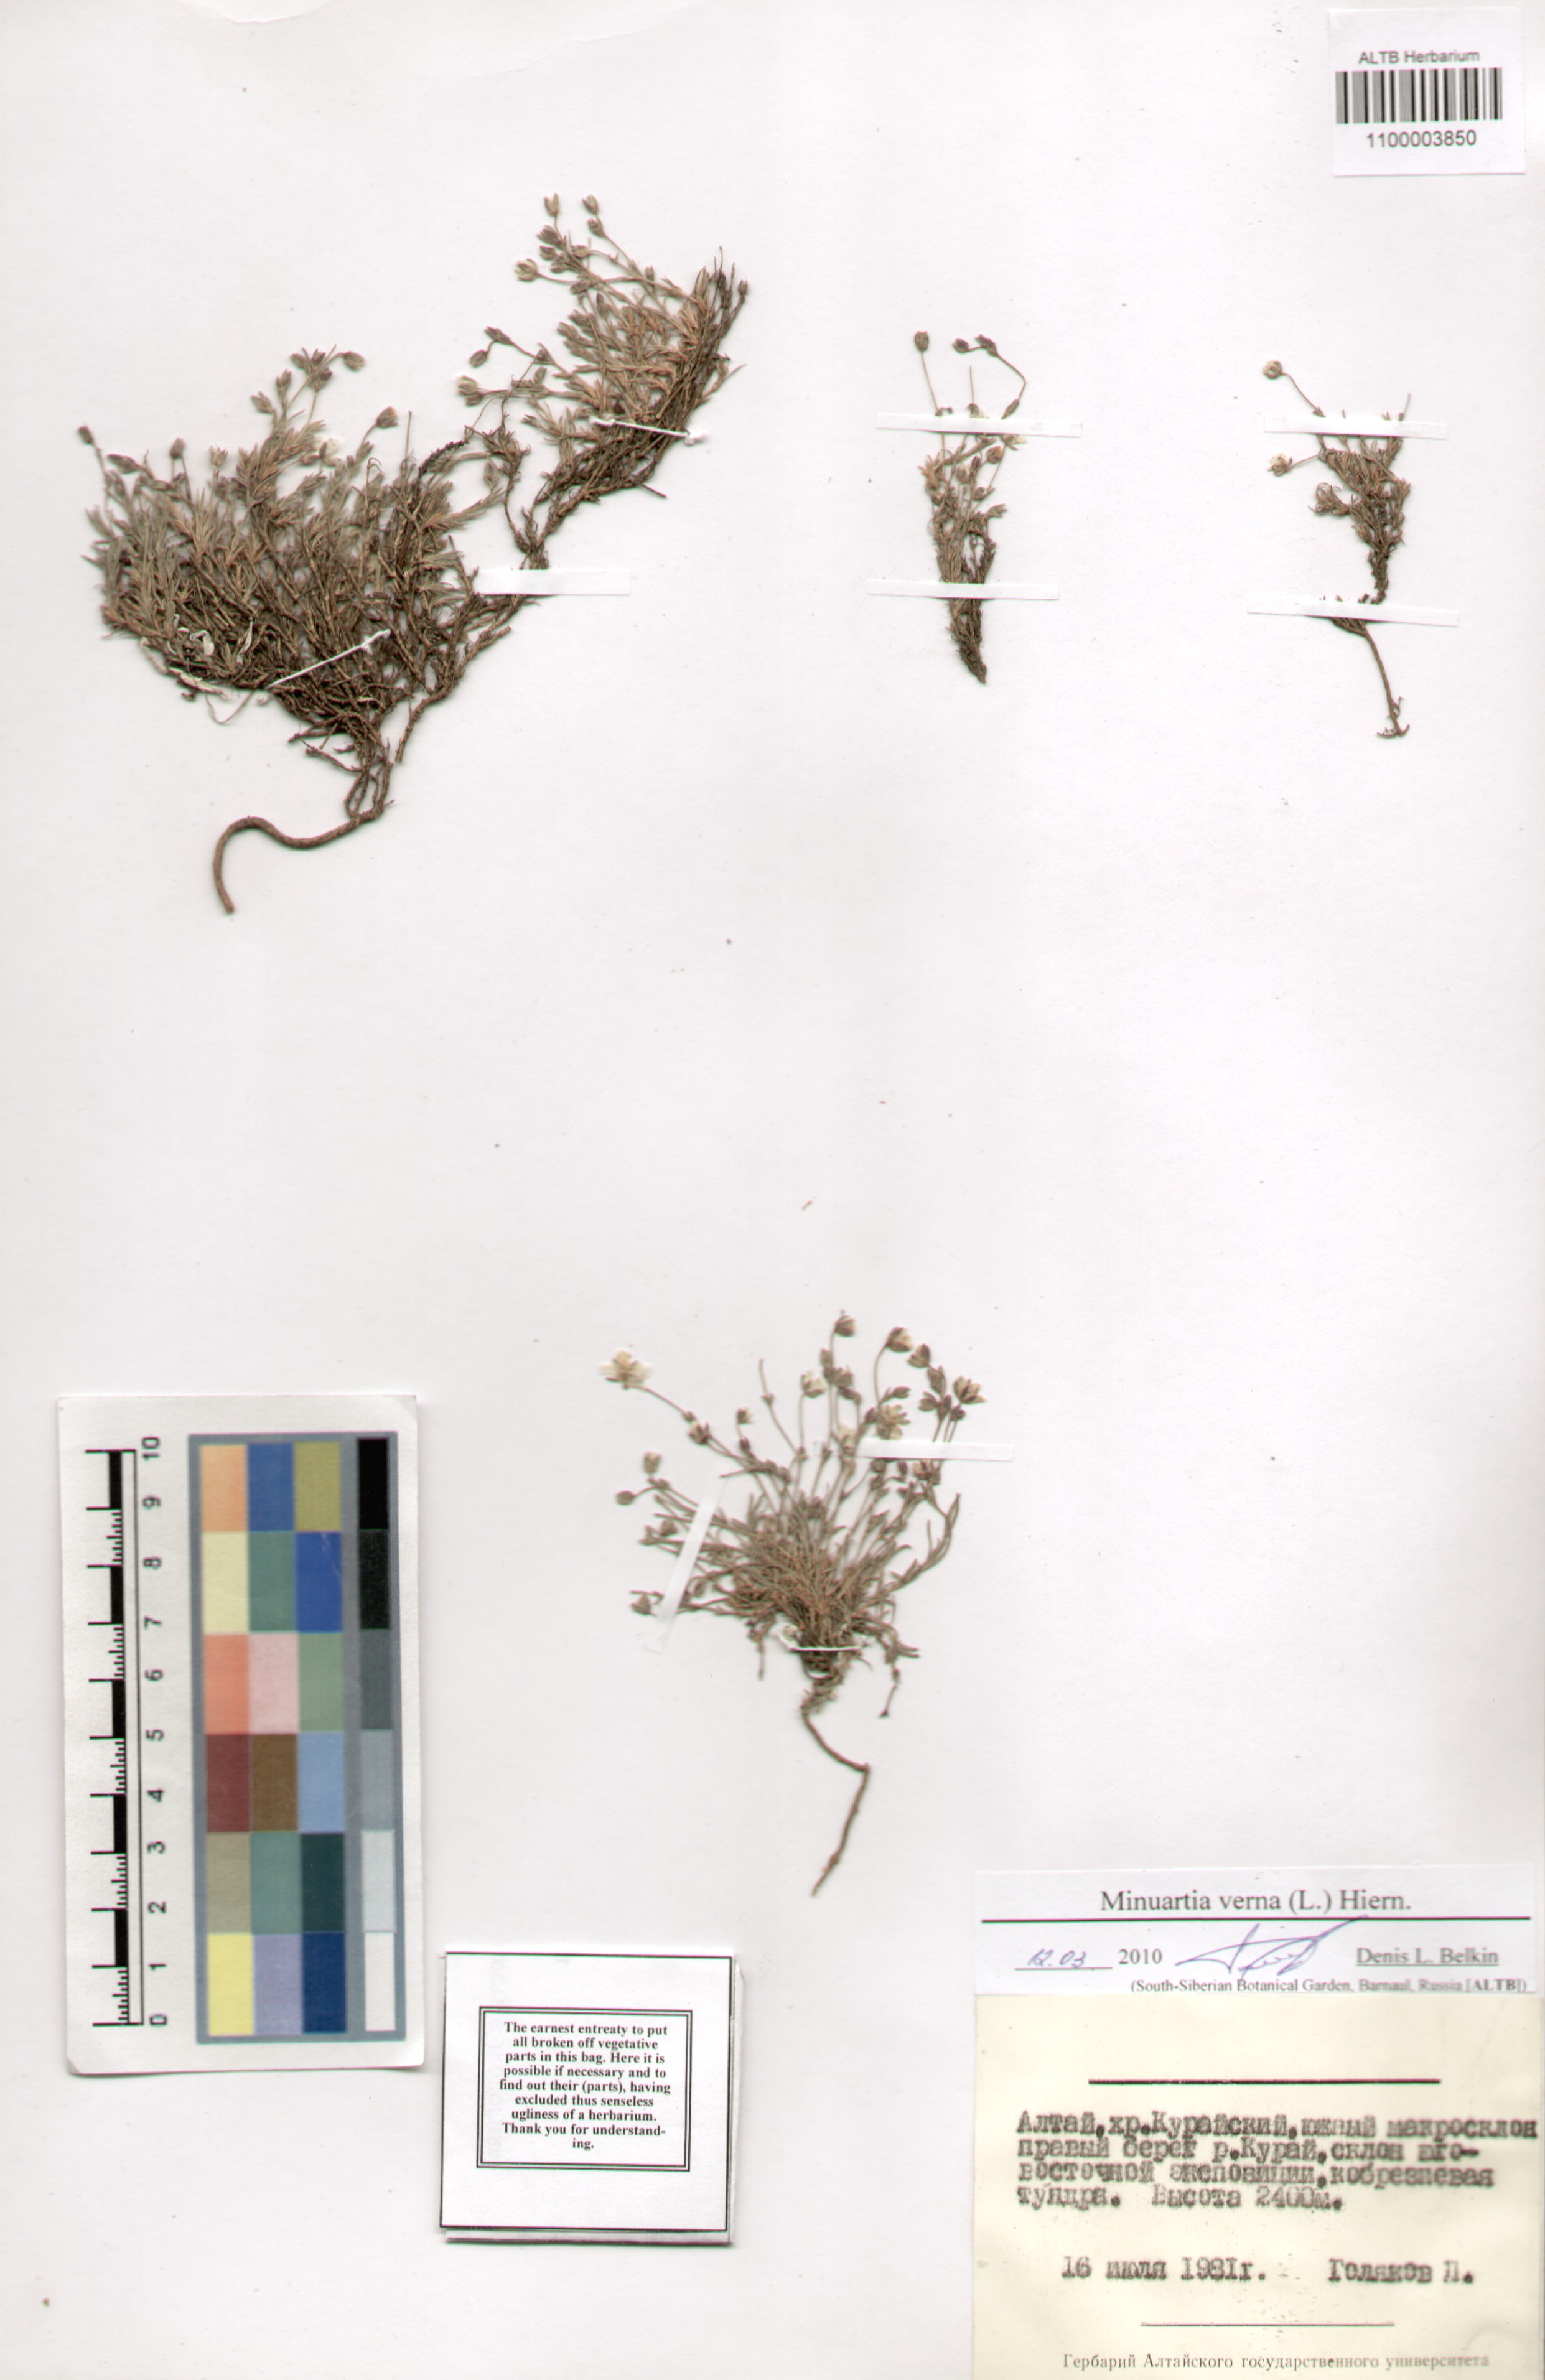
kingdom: Plantae
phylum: Tracheophyta
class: Magnoliopsida
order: Caryophyllales
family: Caryophyllaceae
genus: Sabulina
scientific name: Sabulina verna
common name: Spring sandwort
